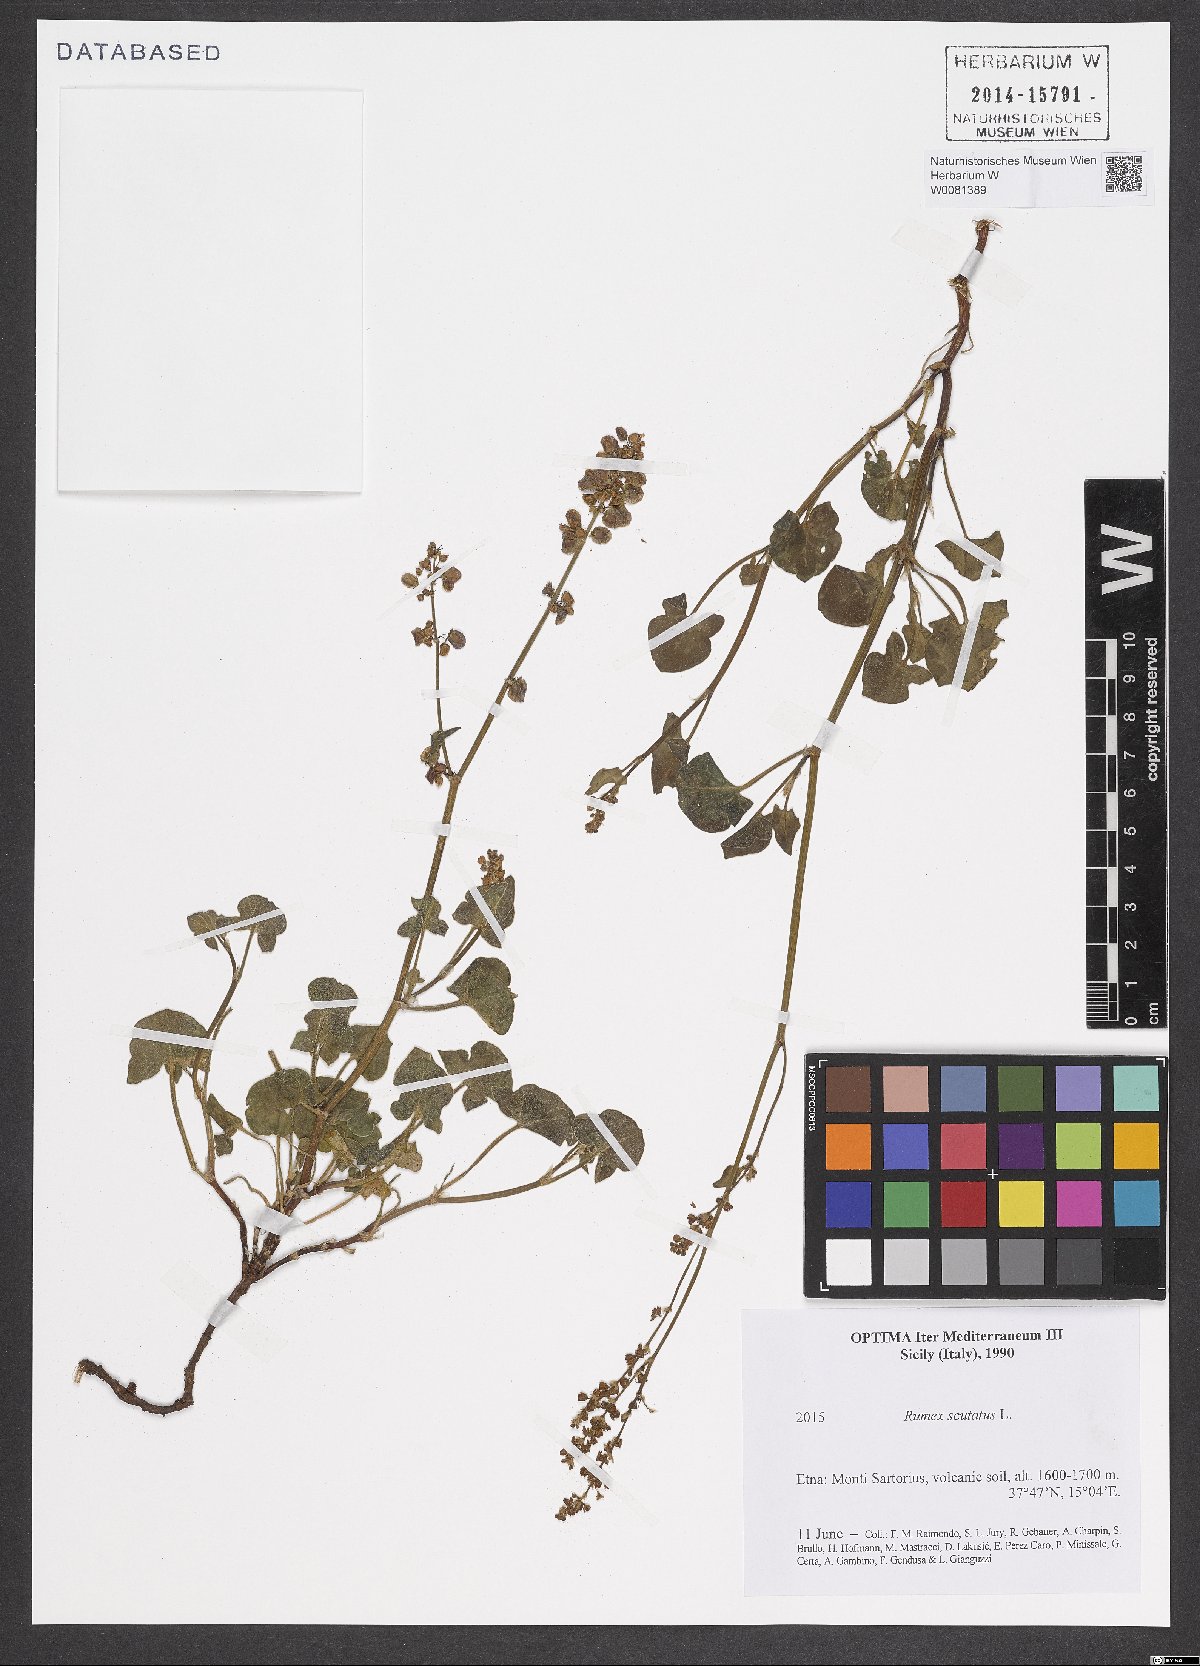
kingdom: Plantae
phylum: Tracheophyta
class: Magnoliopsida
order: Caryophyllales
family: Polygonaceae
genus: Rumex
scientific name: Rumex scutatus
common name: French sorrel
